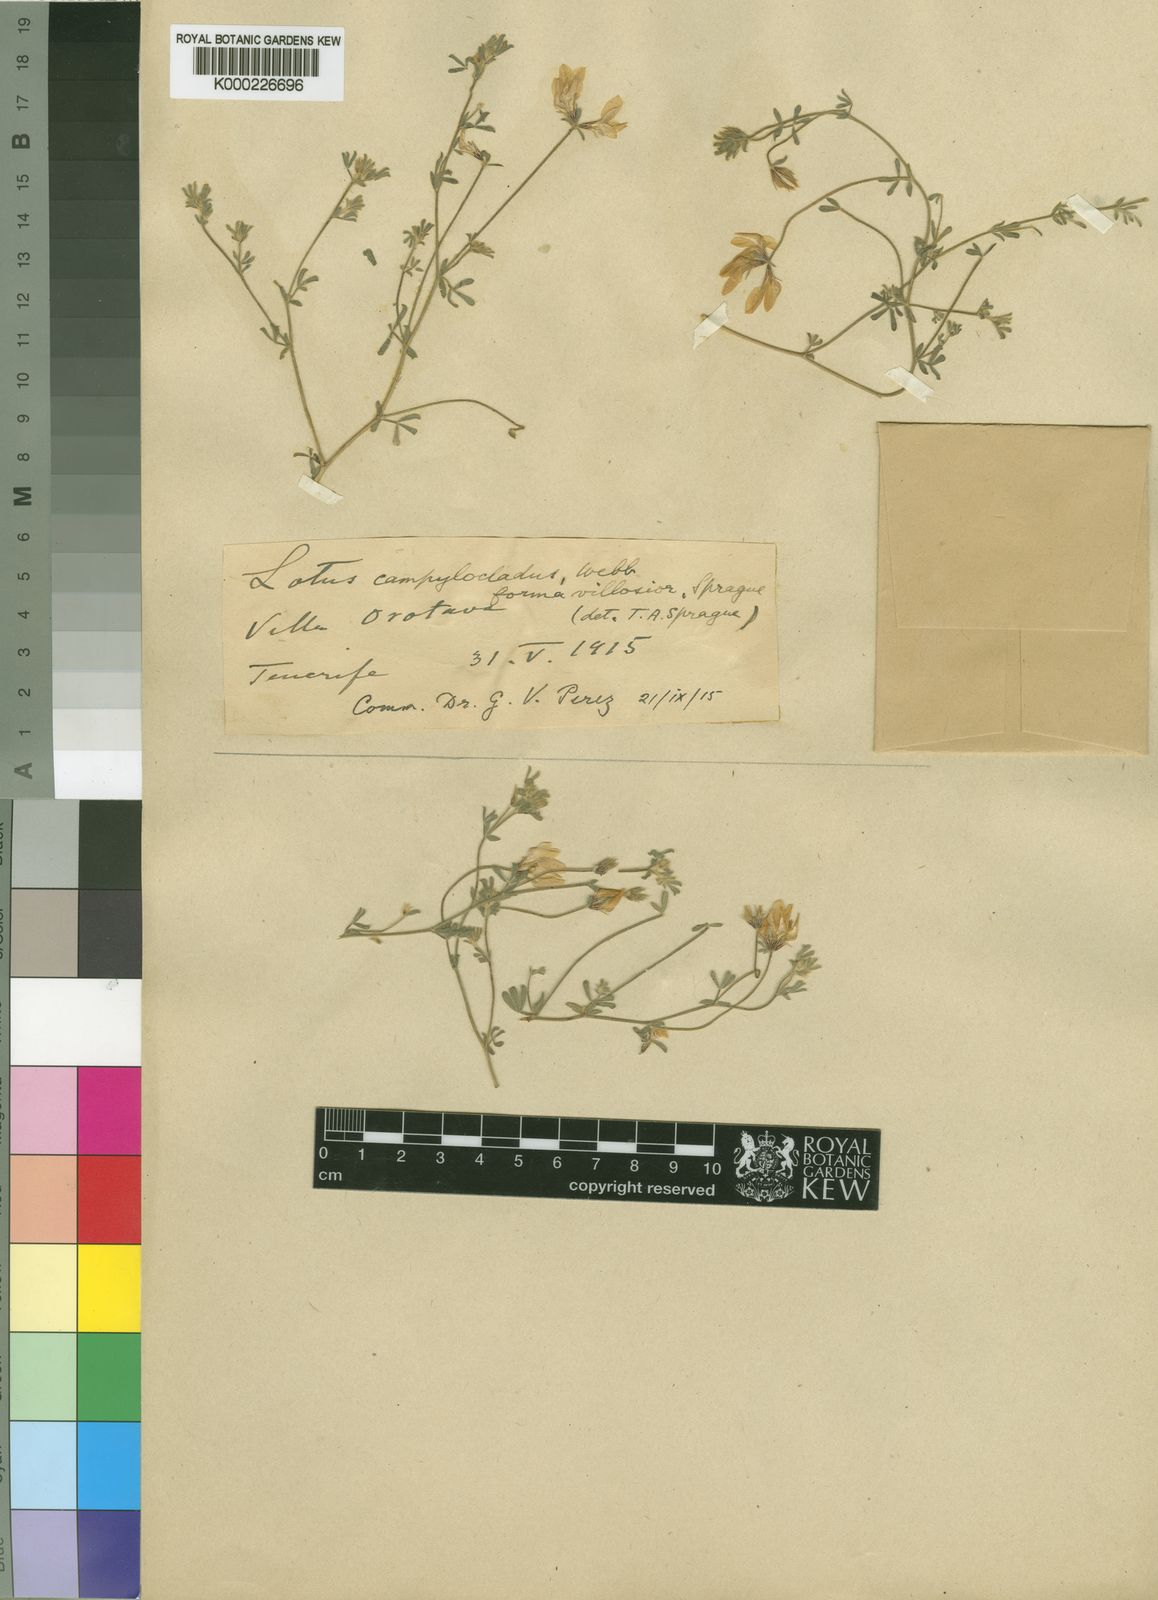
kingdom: Plantae
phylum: Tracheophyta
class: Magnoliopsida
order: Fabales
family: Fabaceae
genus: Lotus
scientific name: Lotus campylocladus
